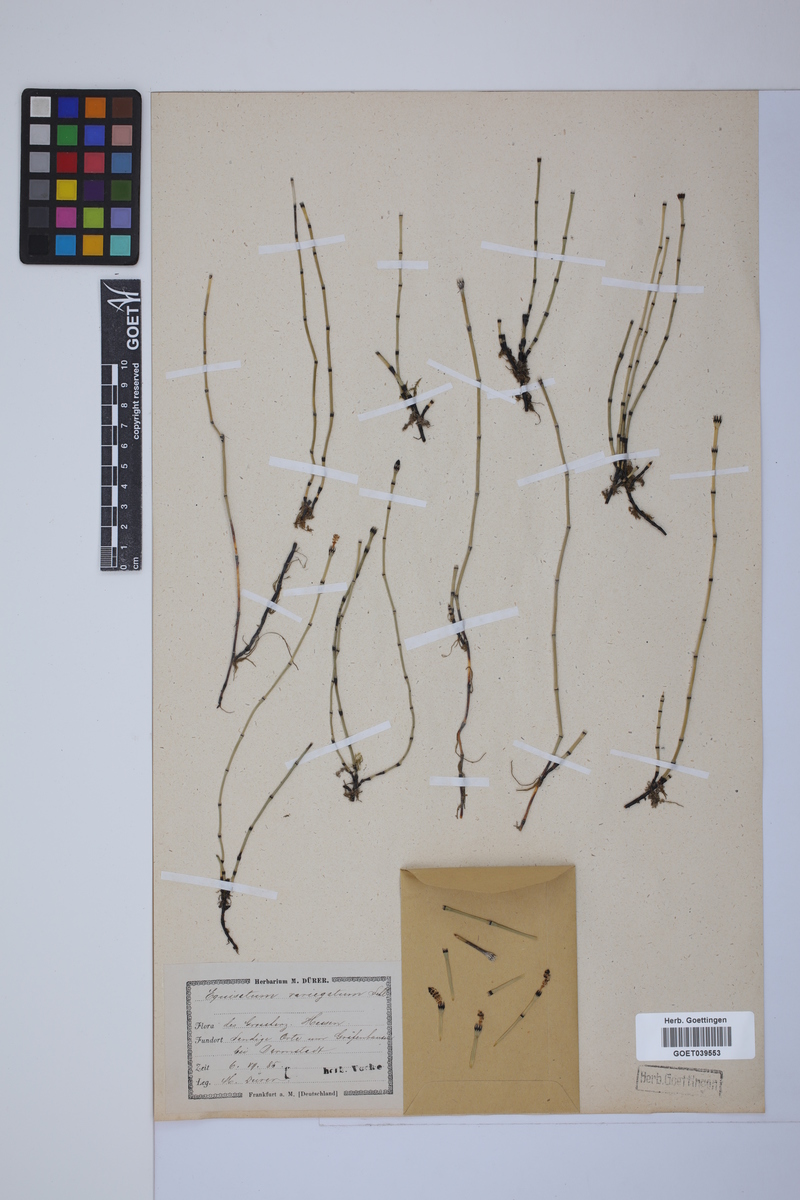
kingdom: Plantae
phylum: Tracheophyta
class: Polypodiopsida
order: Equisetales
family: Equisetaceae
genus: Equisetum
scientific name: Equisetum variegatum
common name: Variegated horsetail
